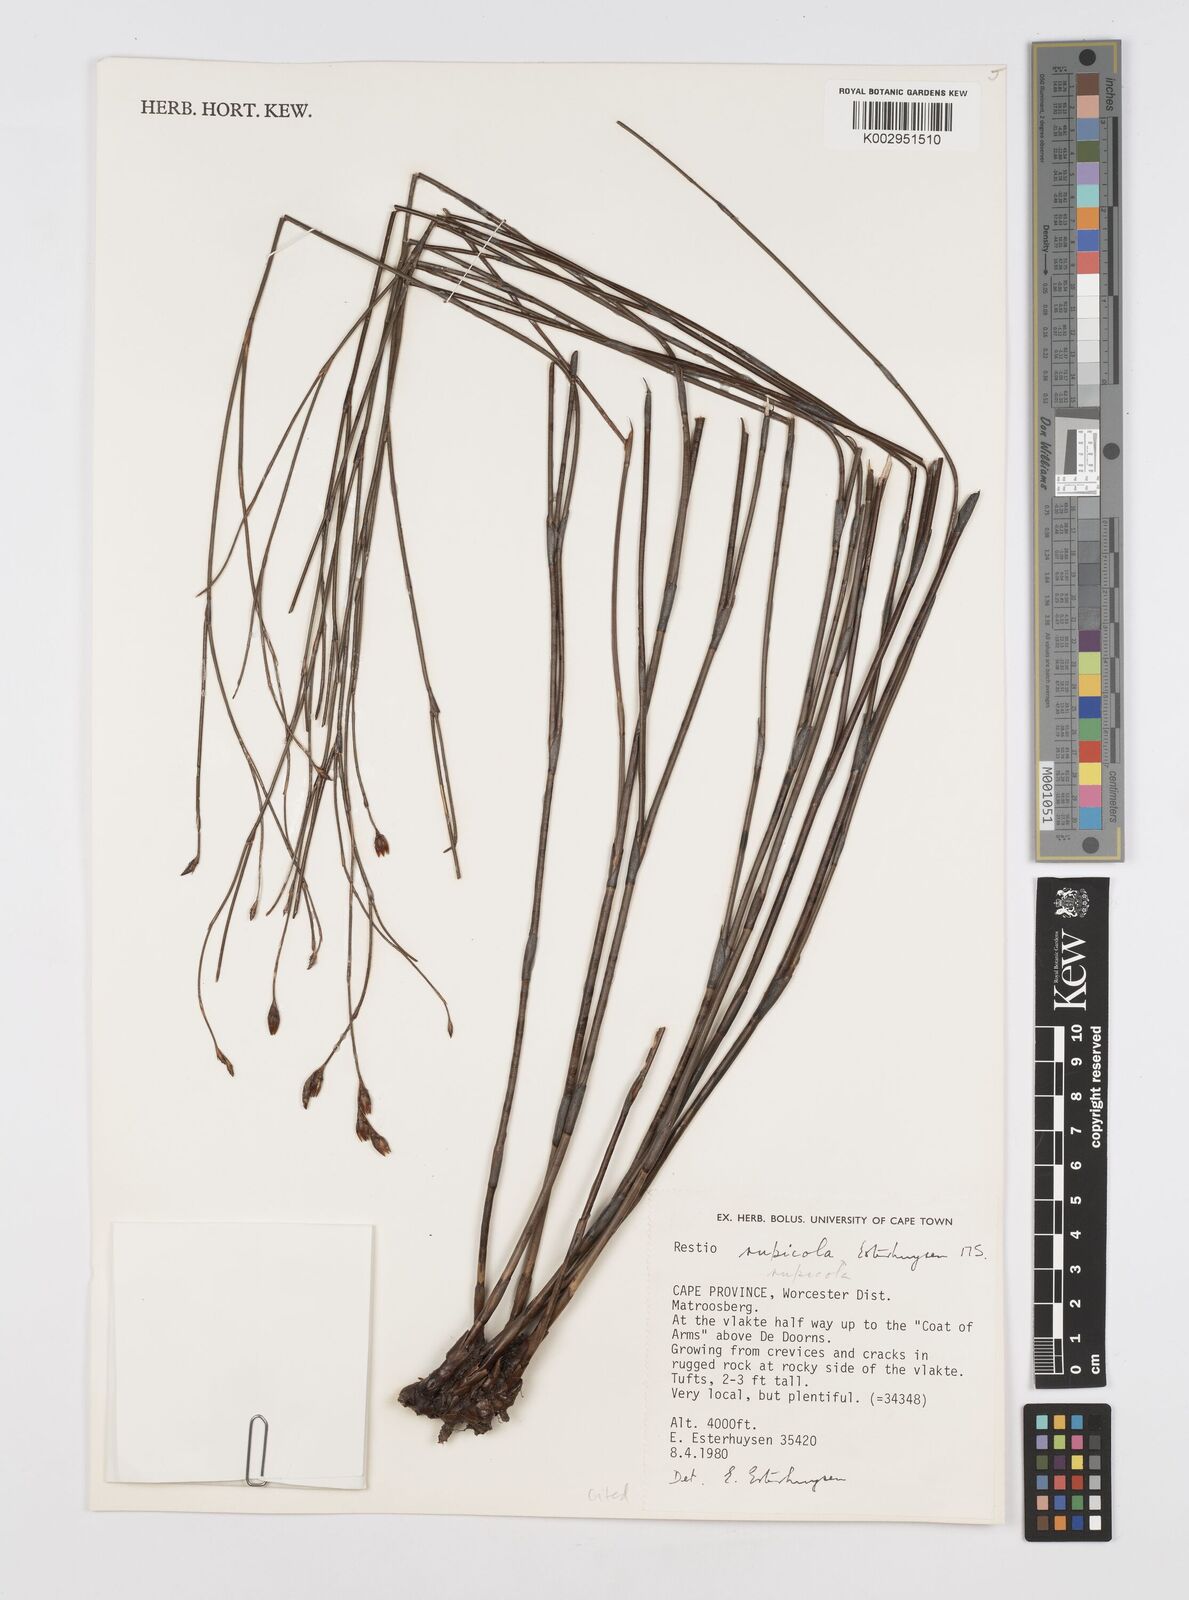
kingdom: Plantae
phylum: Tracheophyta
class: Liliopsida
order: Poales
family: Restionaceae
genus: Restio
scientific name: Restio rupicola
